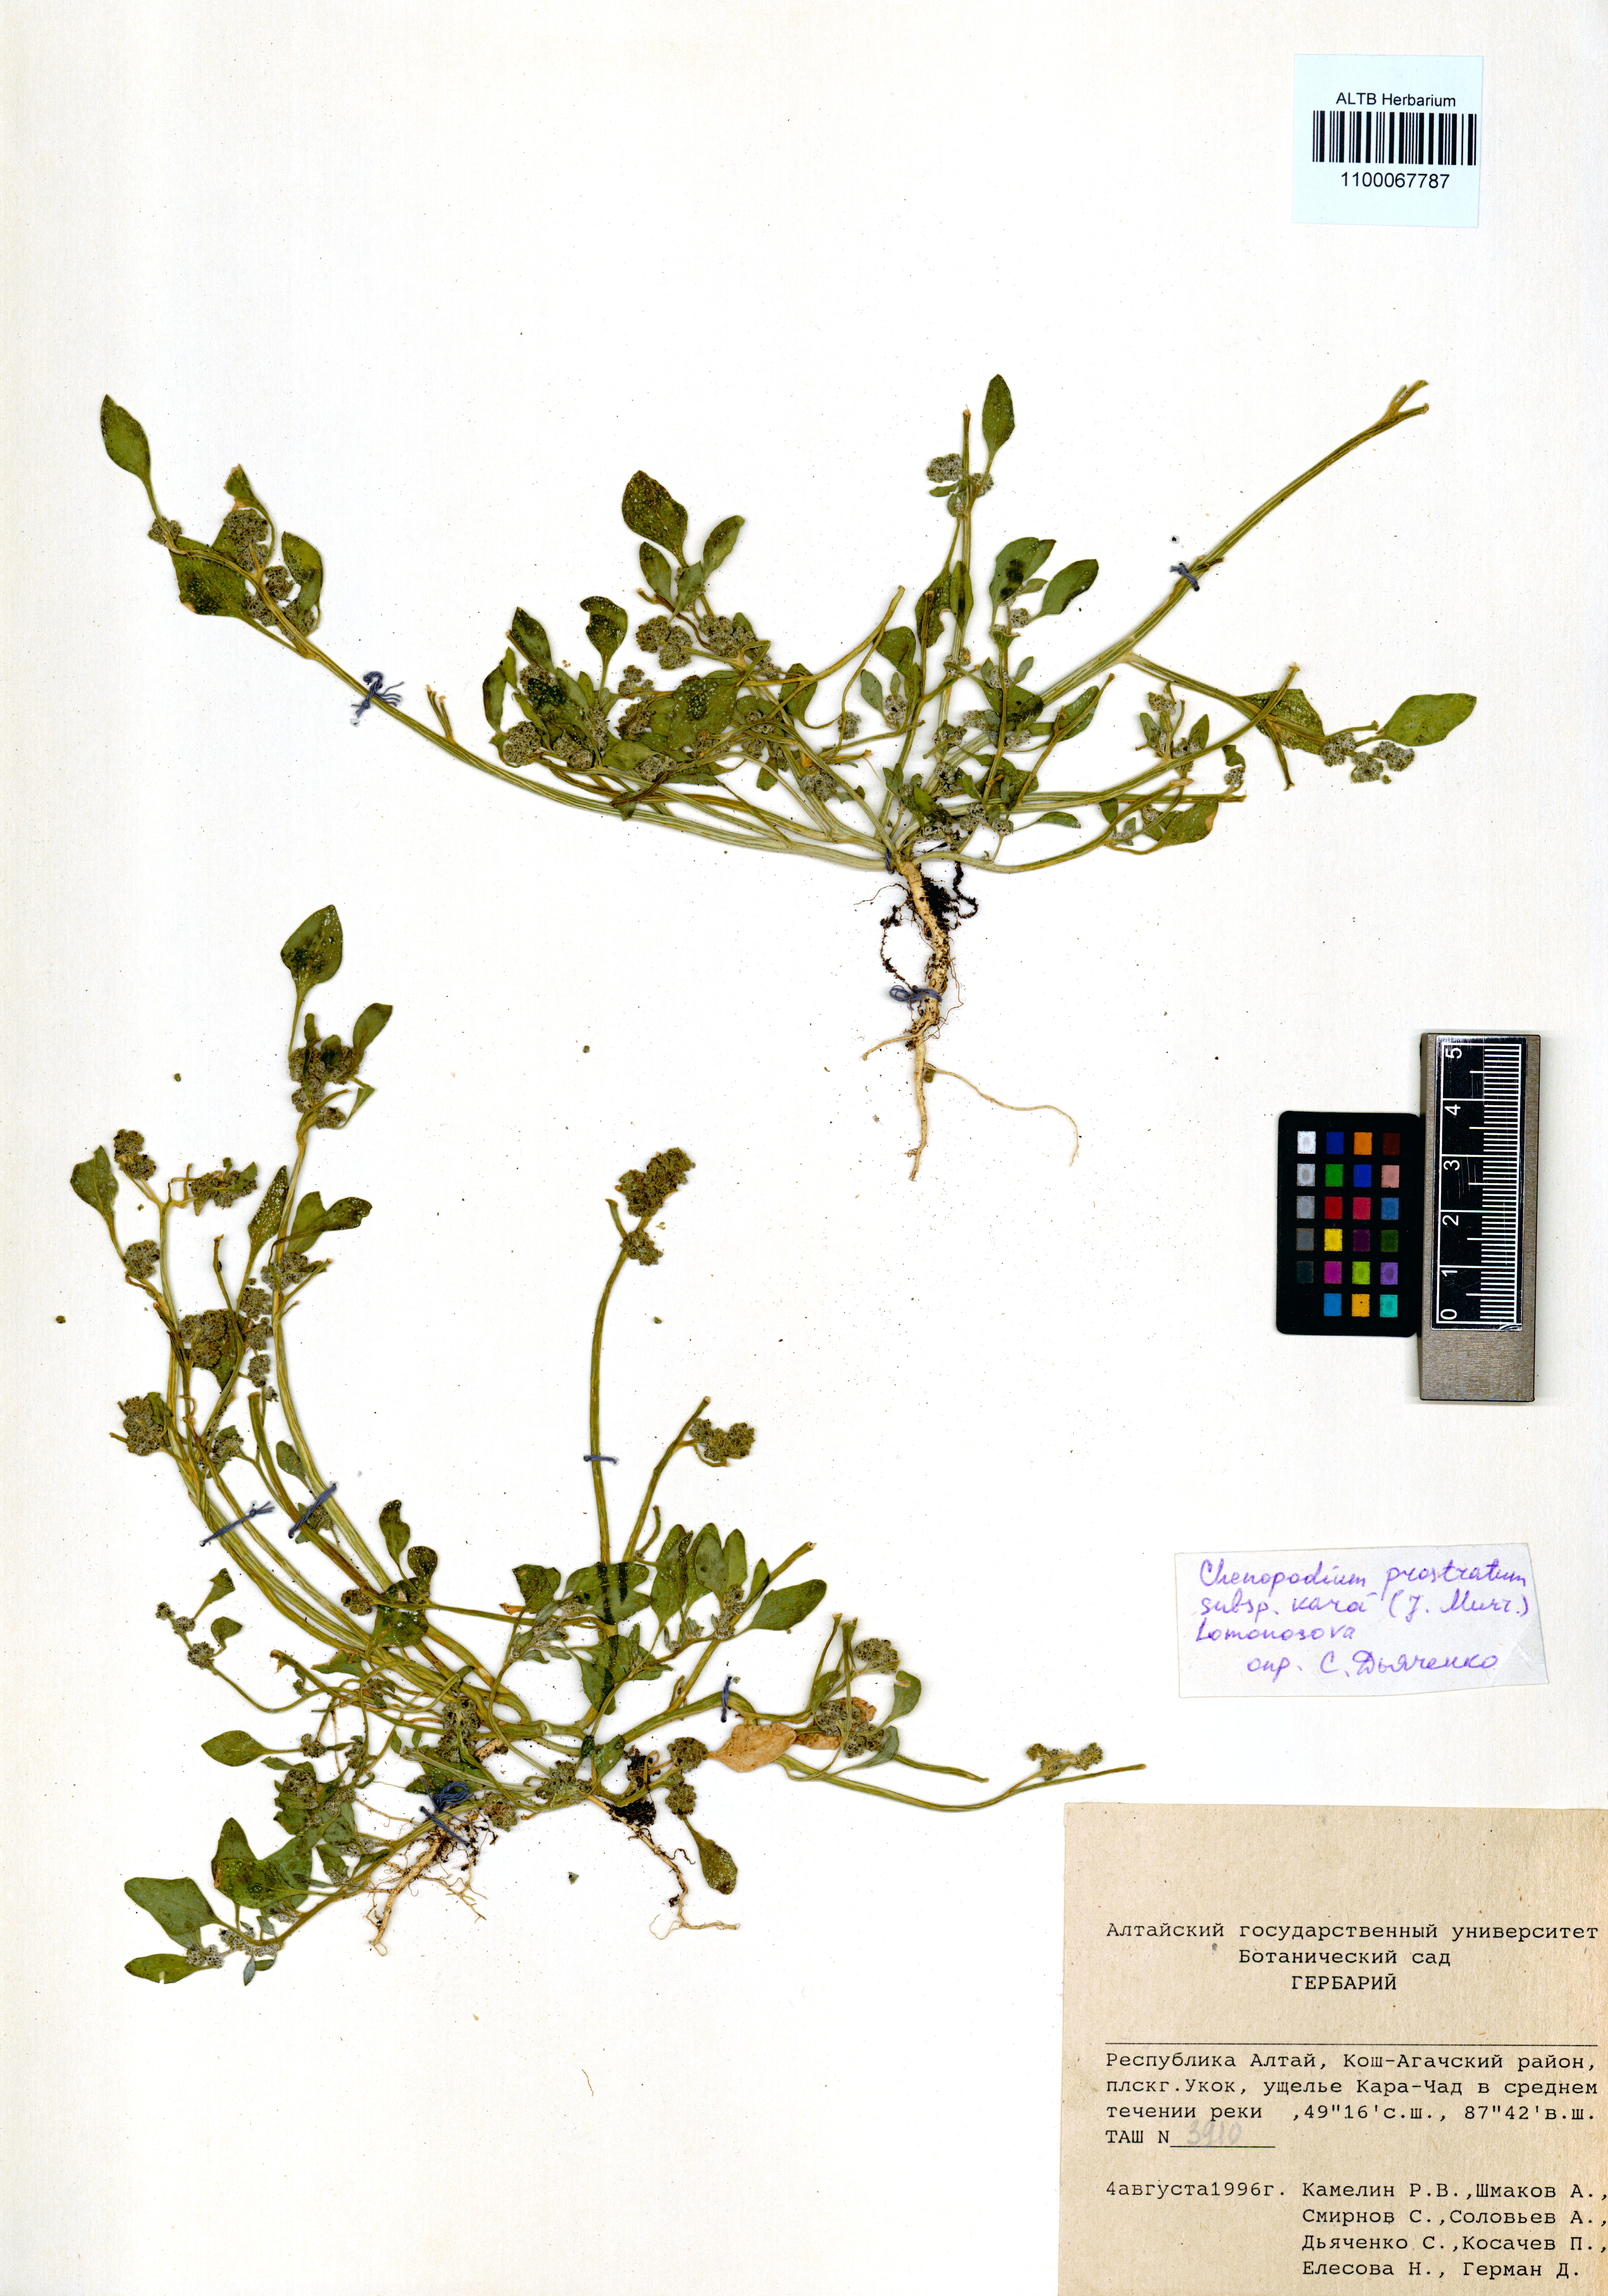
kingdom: Plantae
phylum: Tracheophyta
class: Magnoliopsida
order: Caryophyllales
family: Amaranthaceae
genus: Chenopodium
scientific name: Chenopodium karoi
